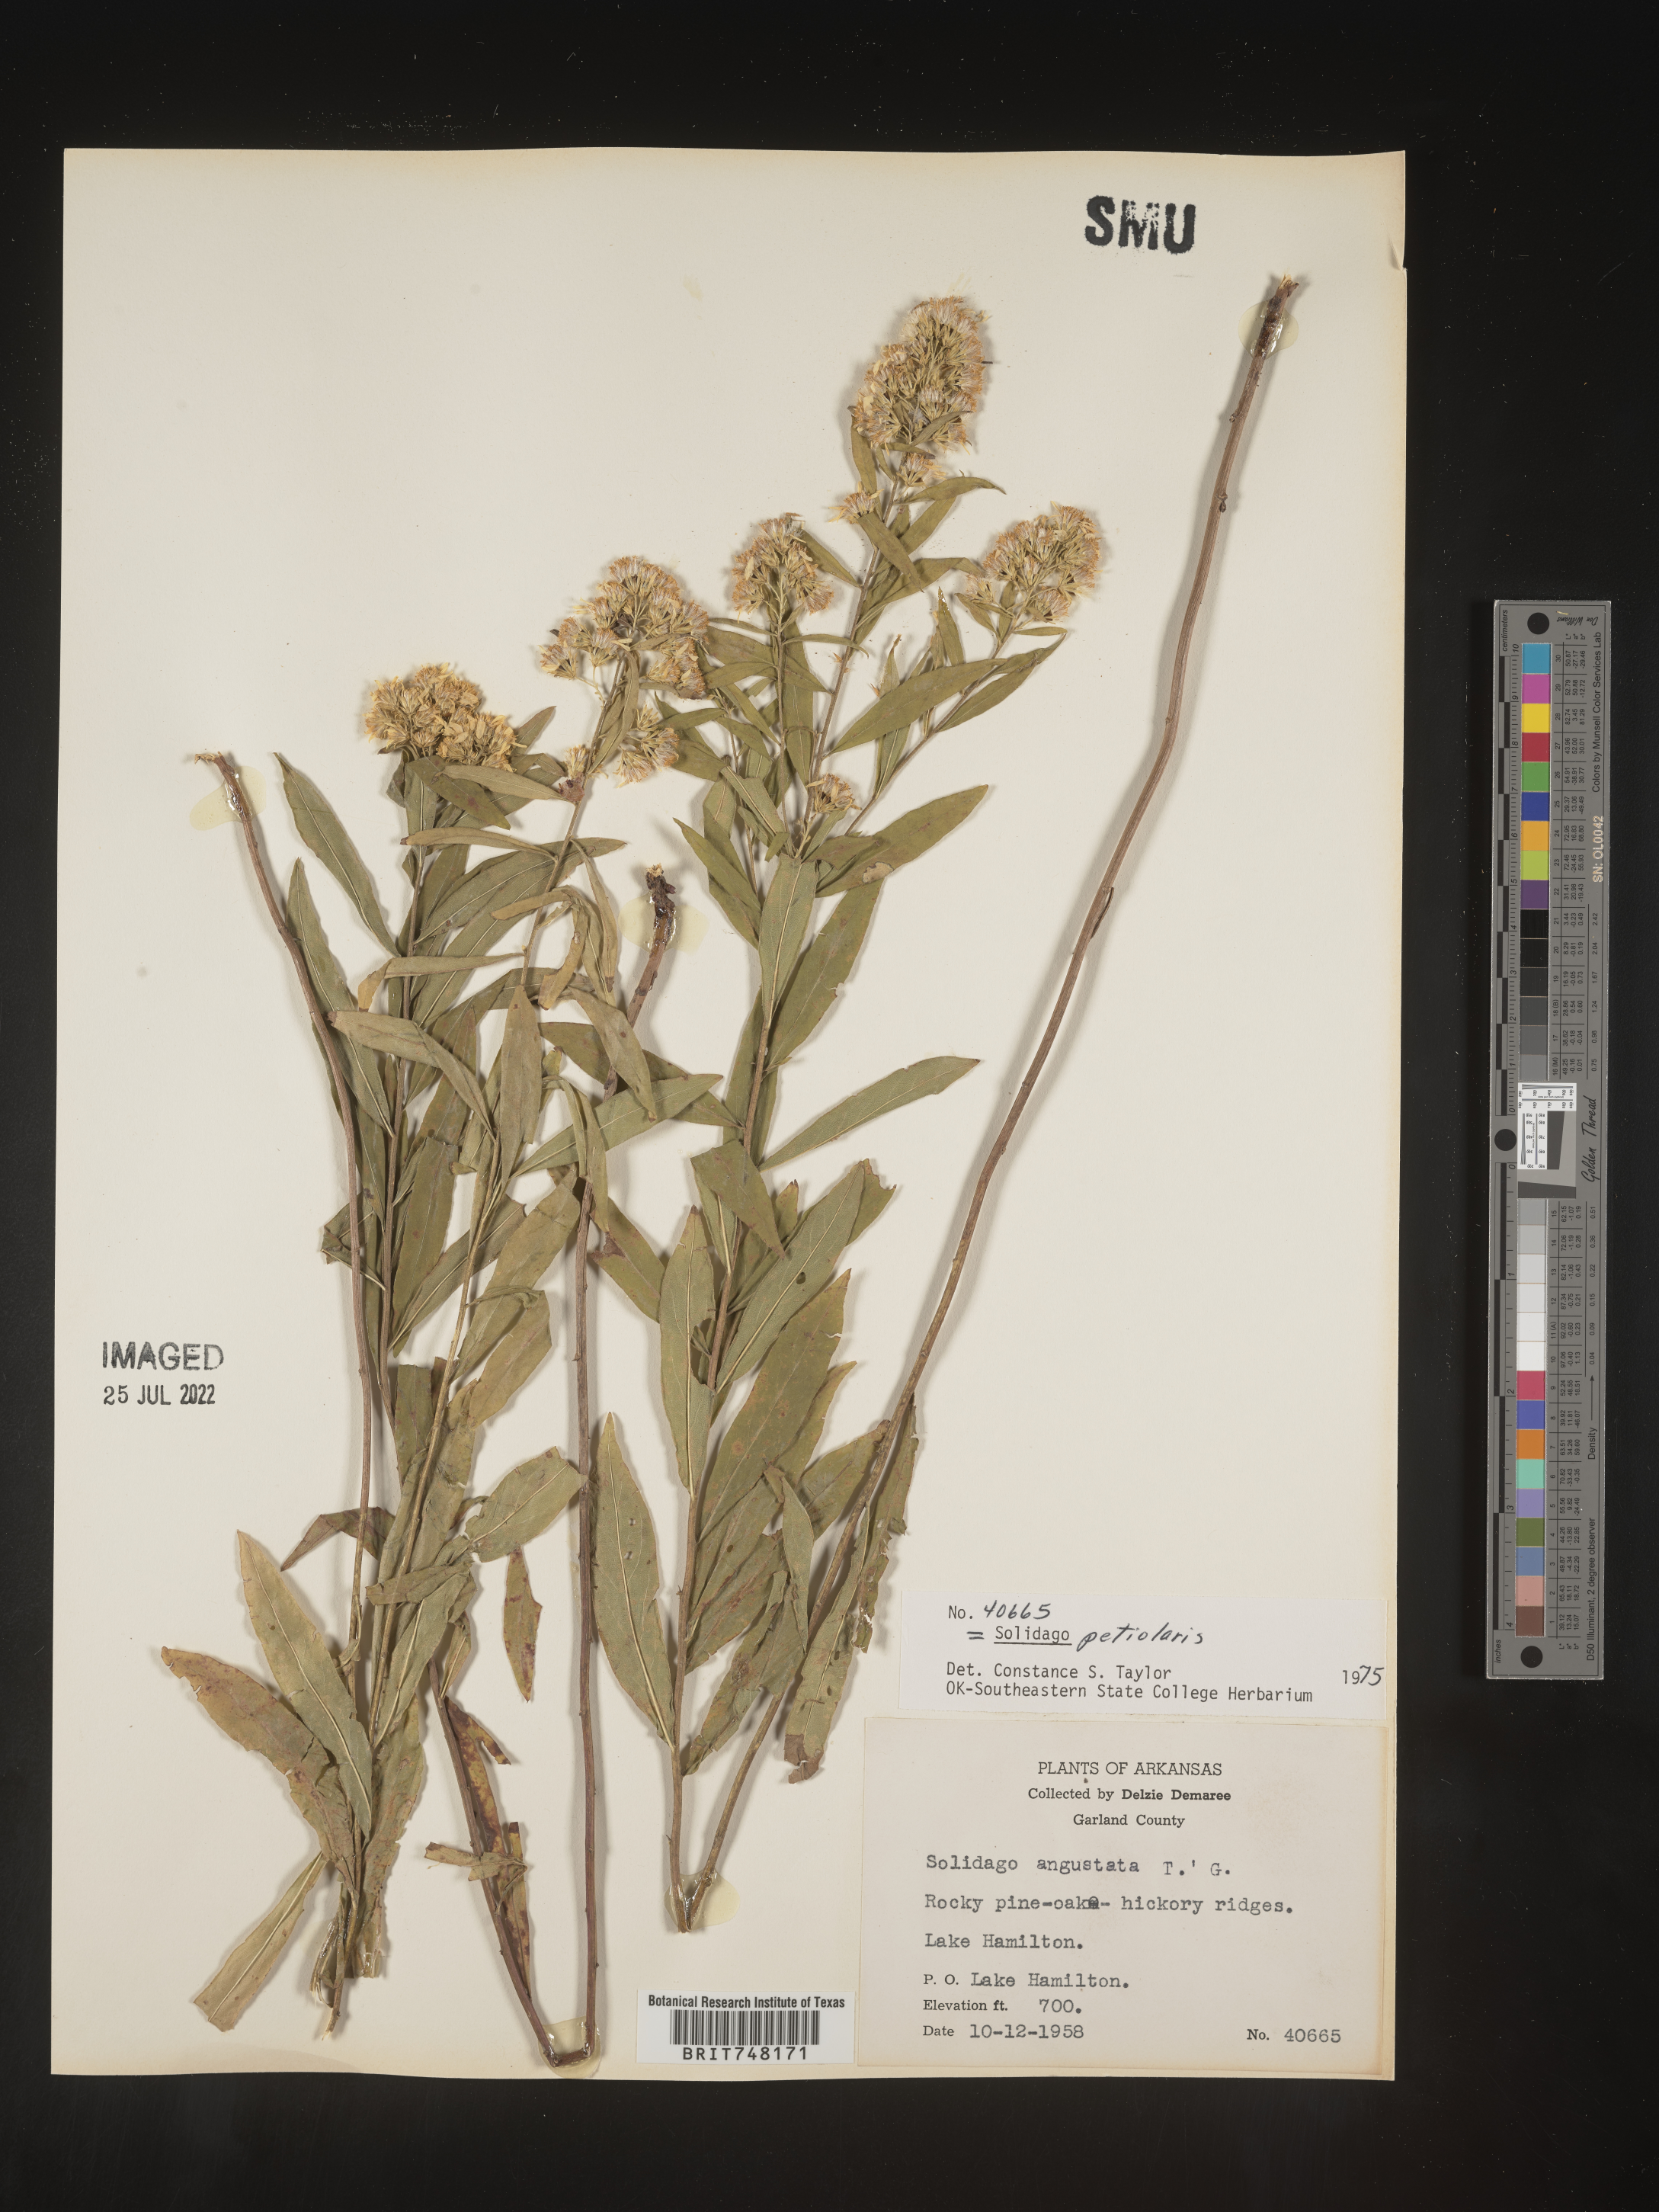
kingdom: Plantae
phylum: Tracheophyta
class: Magnoliopsida
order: Asterales
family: Asteraceae
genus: Solidago
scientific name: Solidago petiolaris
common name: Downy ragged goldenrod
